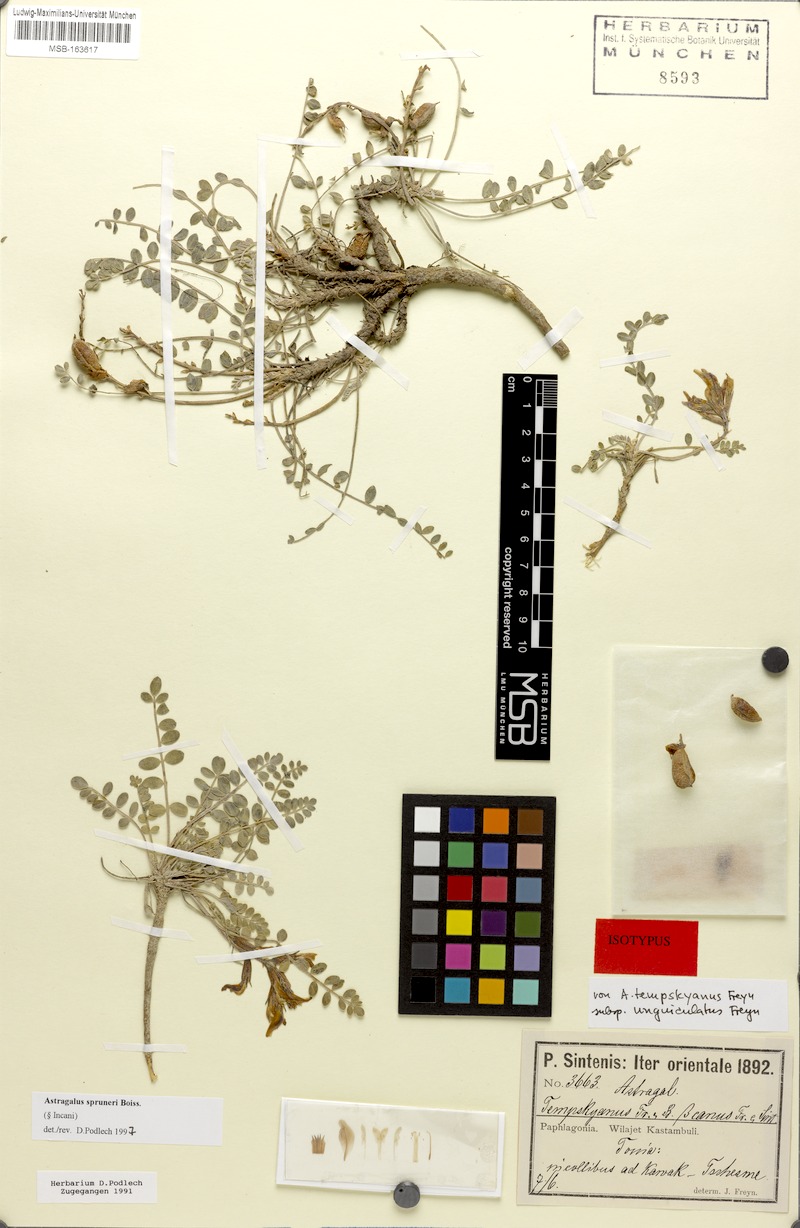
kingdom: Plantae
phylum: Tracheophyta
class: Magnoliopsida
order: Fabales
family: Fabaceae
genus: Astragalus
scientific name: Astragalus spruneri
